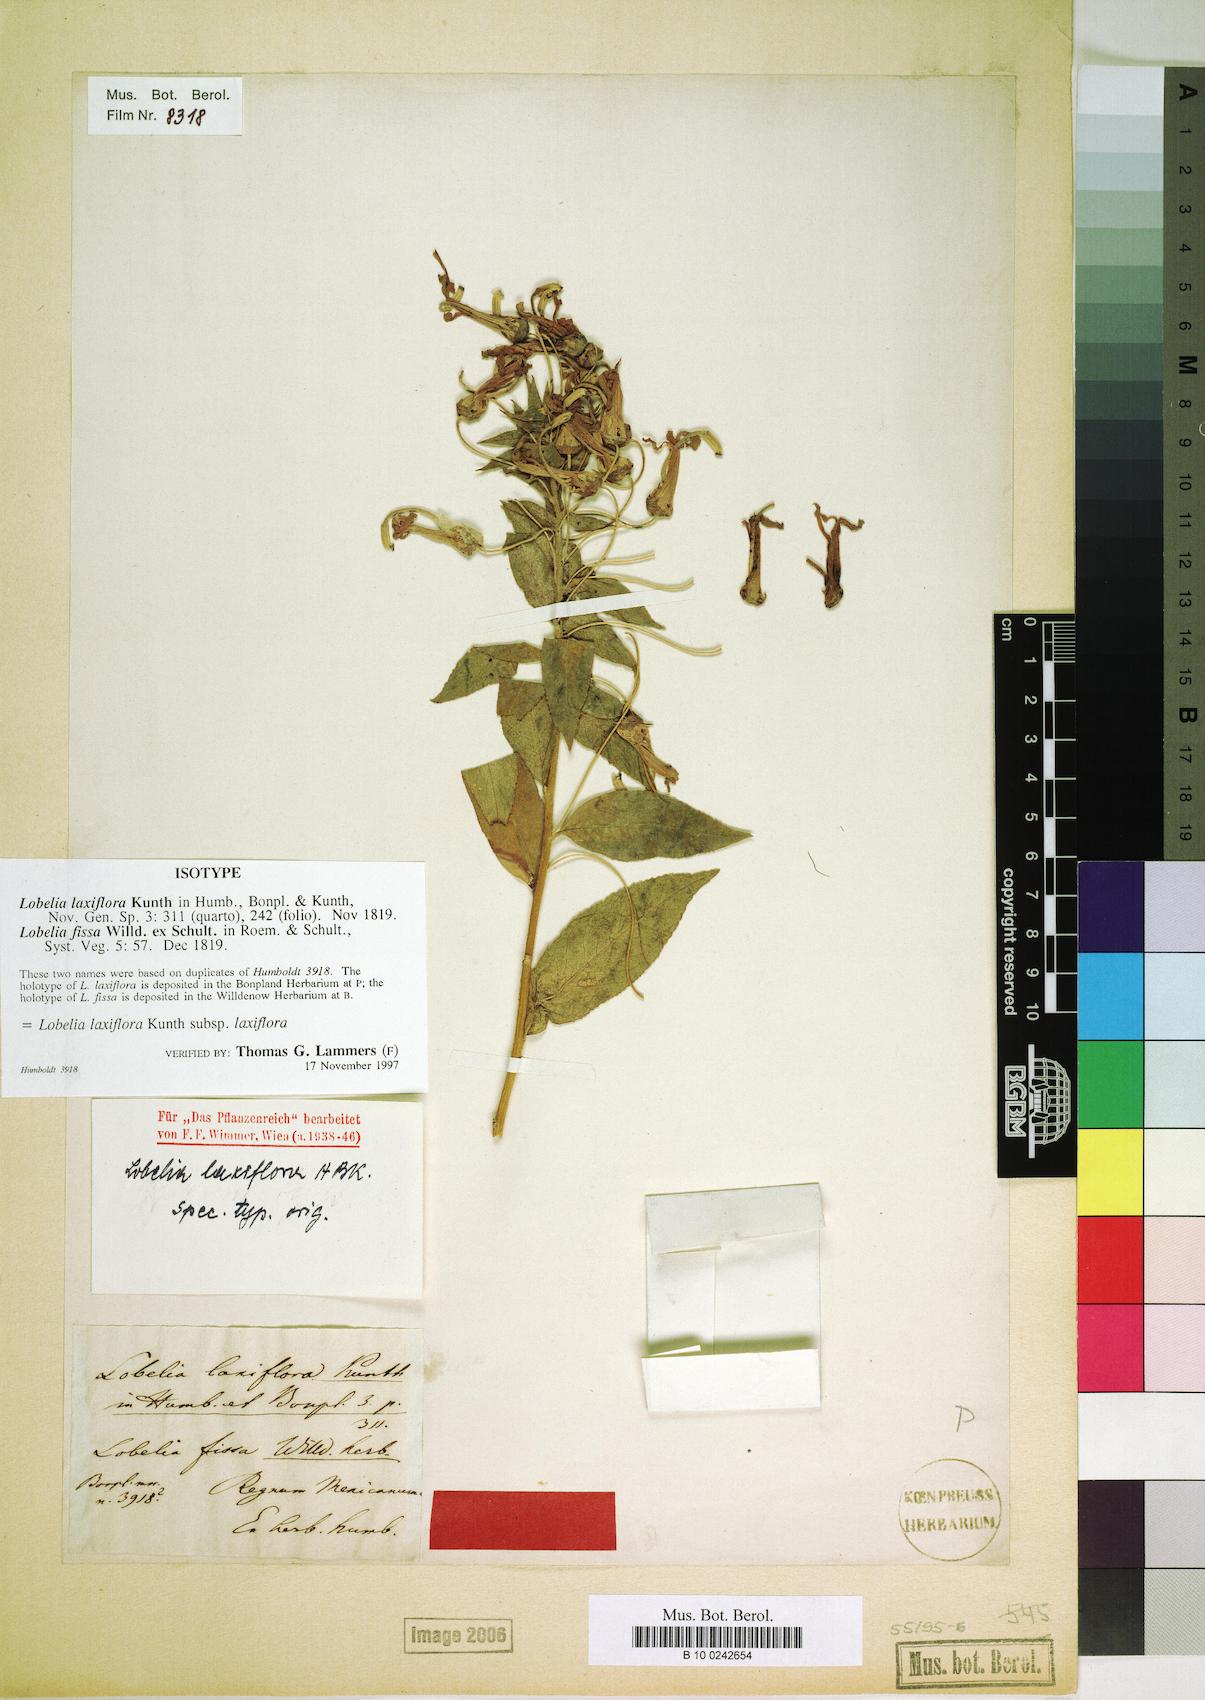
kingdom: Plantae
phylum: Tracheophyta
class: Magnoliopsida
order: Asterales
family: Campanulaceae
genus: Lobelia
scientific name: Lobelia laxiflora
